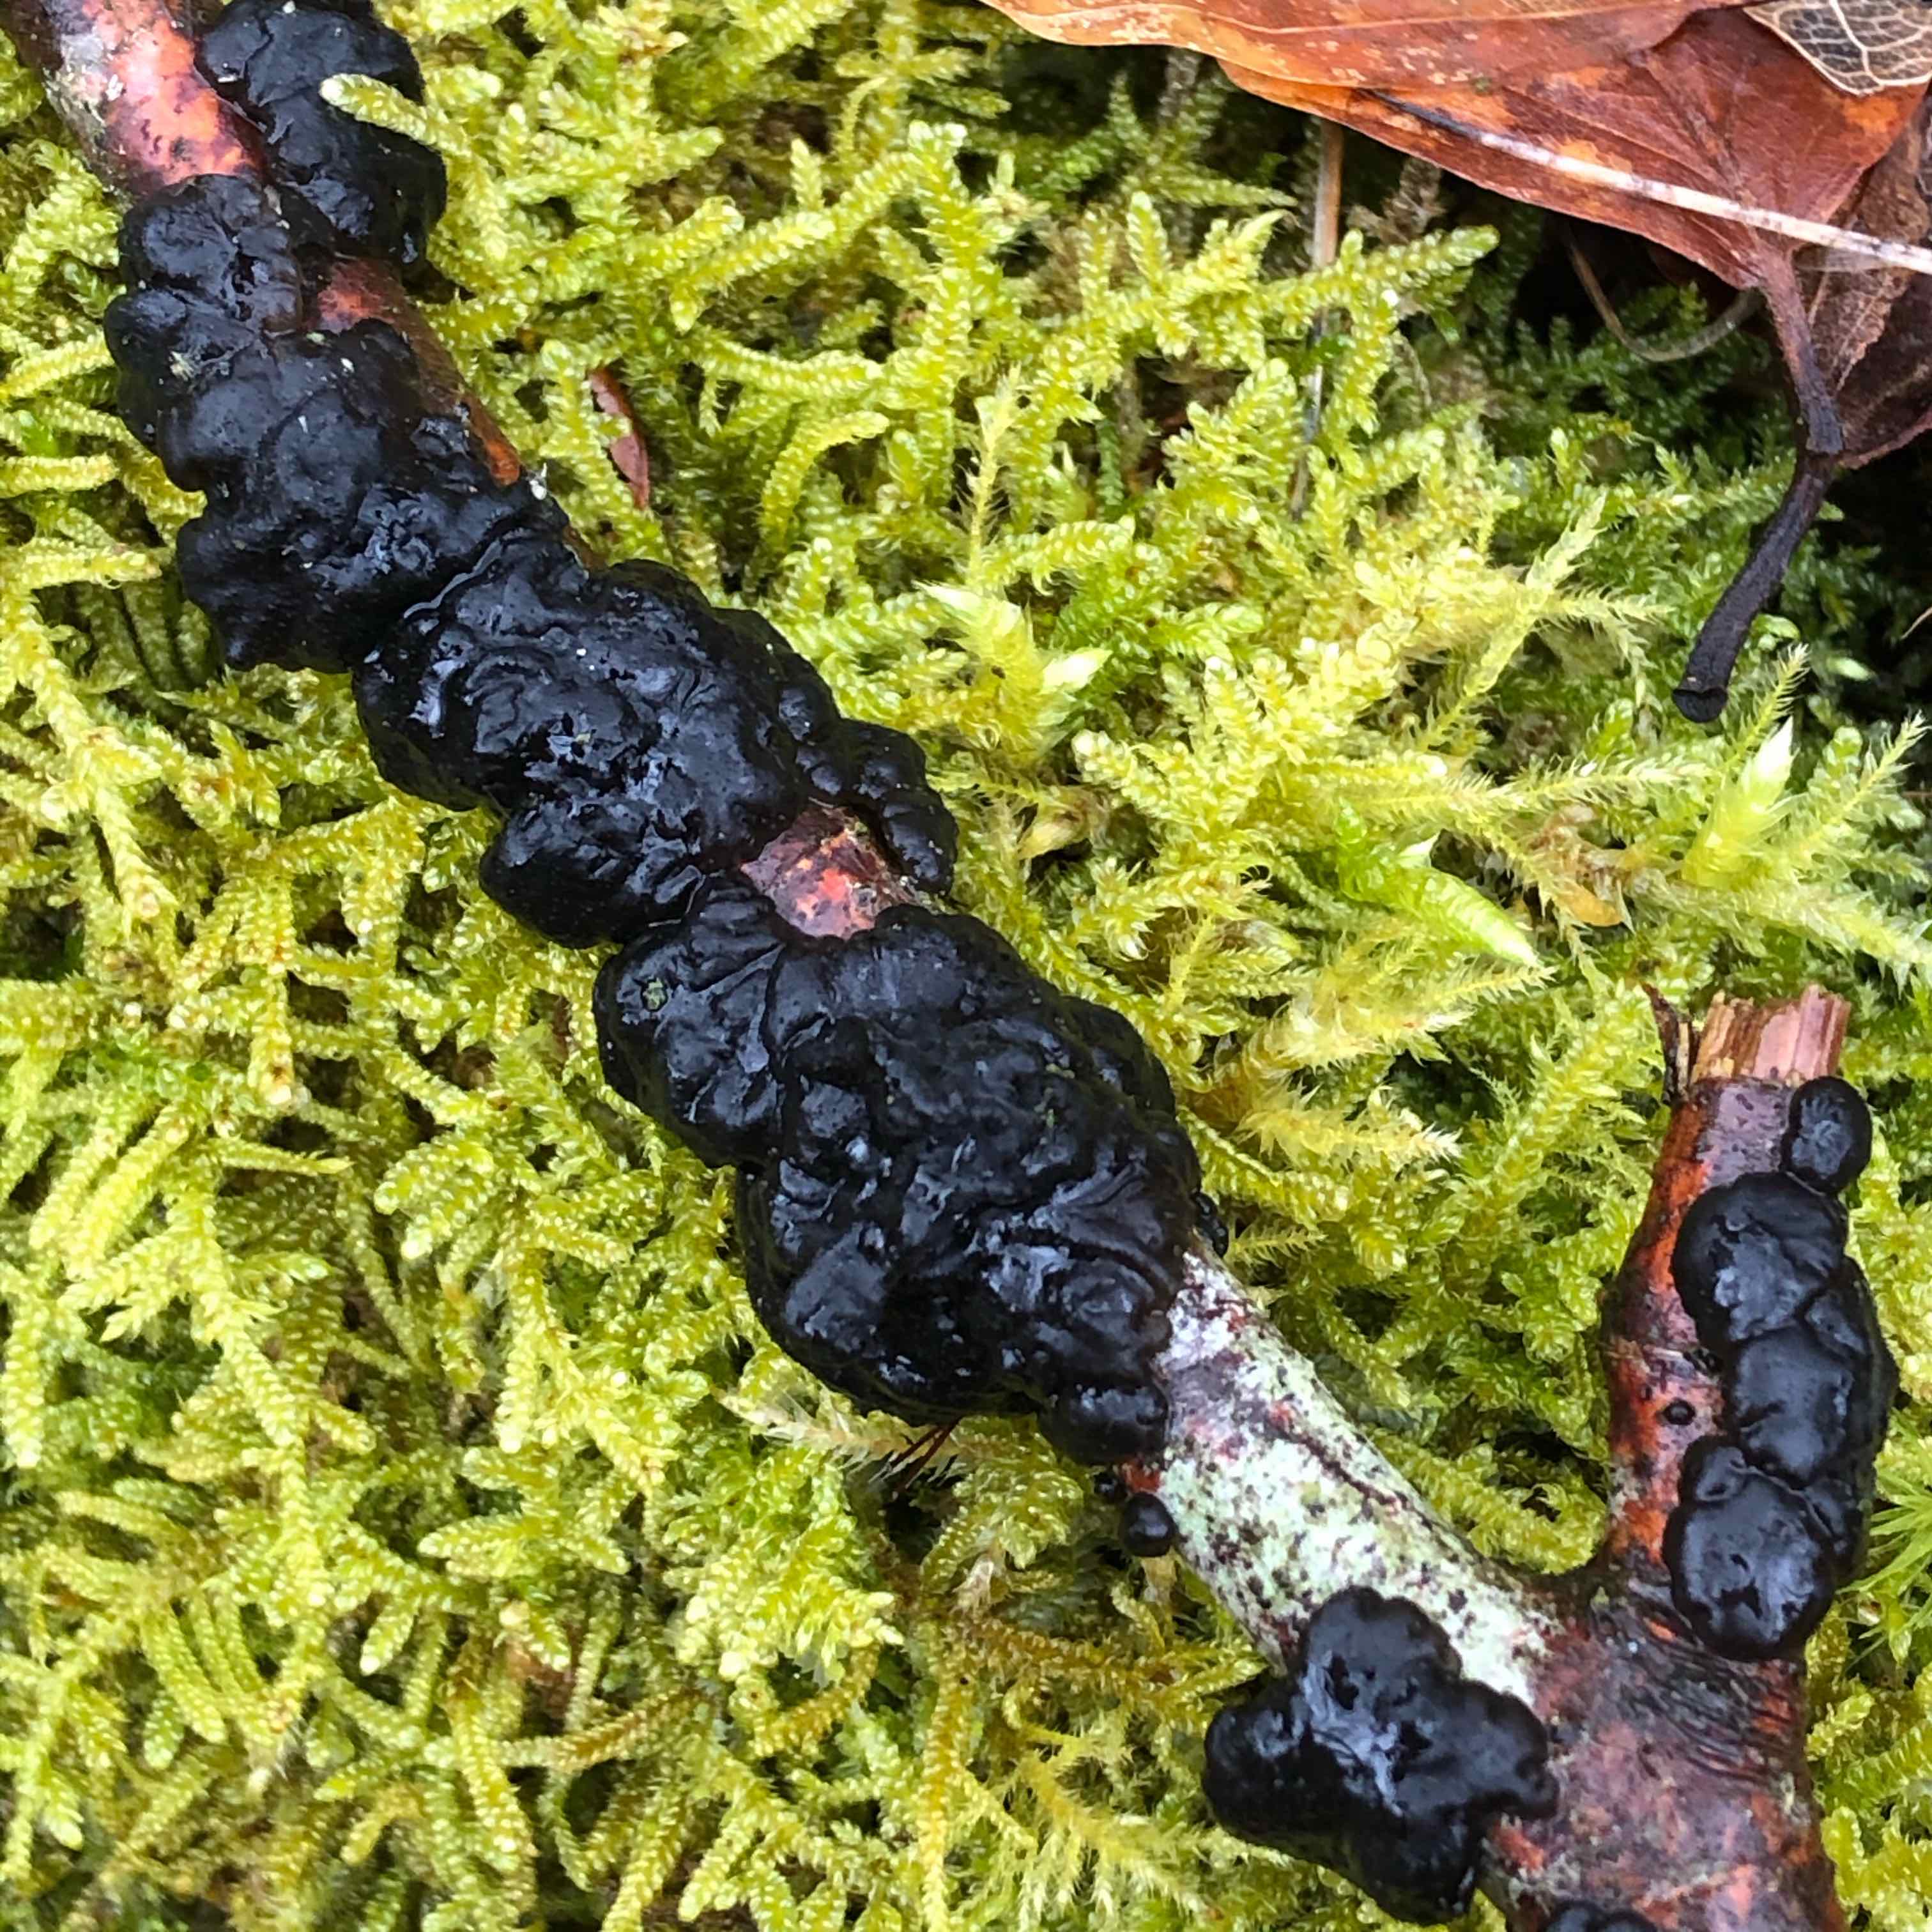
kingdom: Fungi
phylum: Basidiomycota
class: Agaricomycetes
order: Auriculariales
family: Auriculariaceae
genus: Exidia
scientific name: Exidia nigricans
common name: almindelig bævretop
